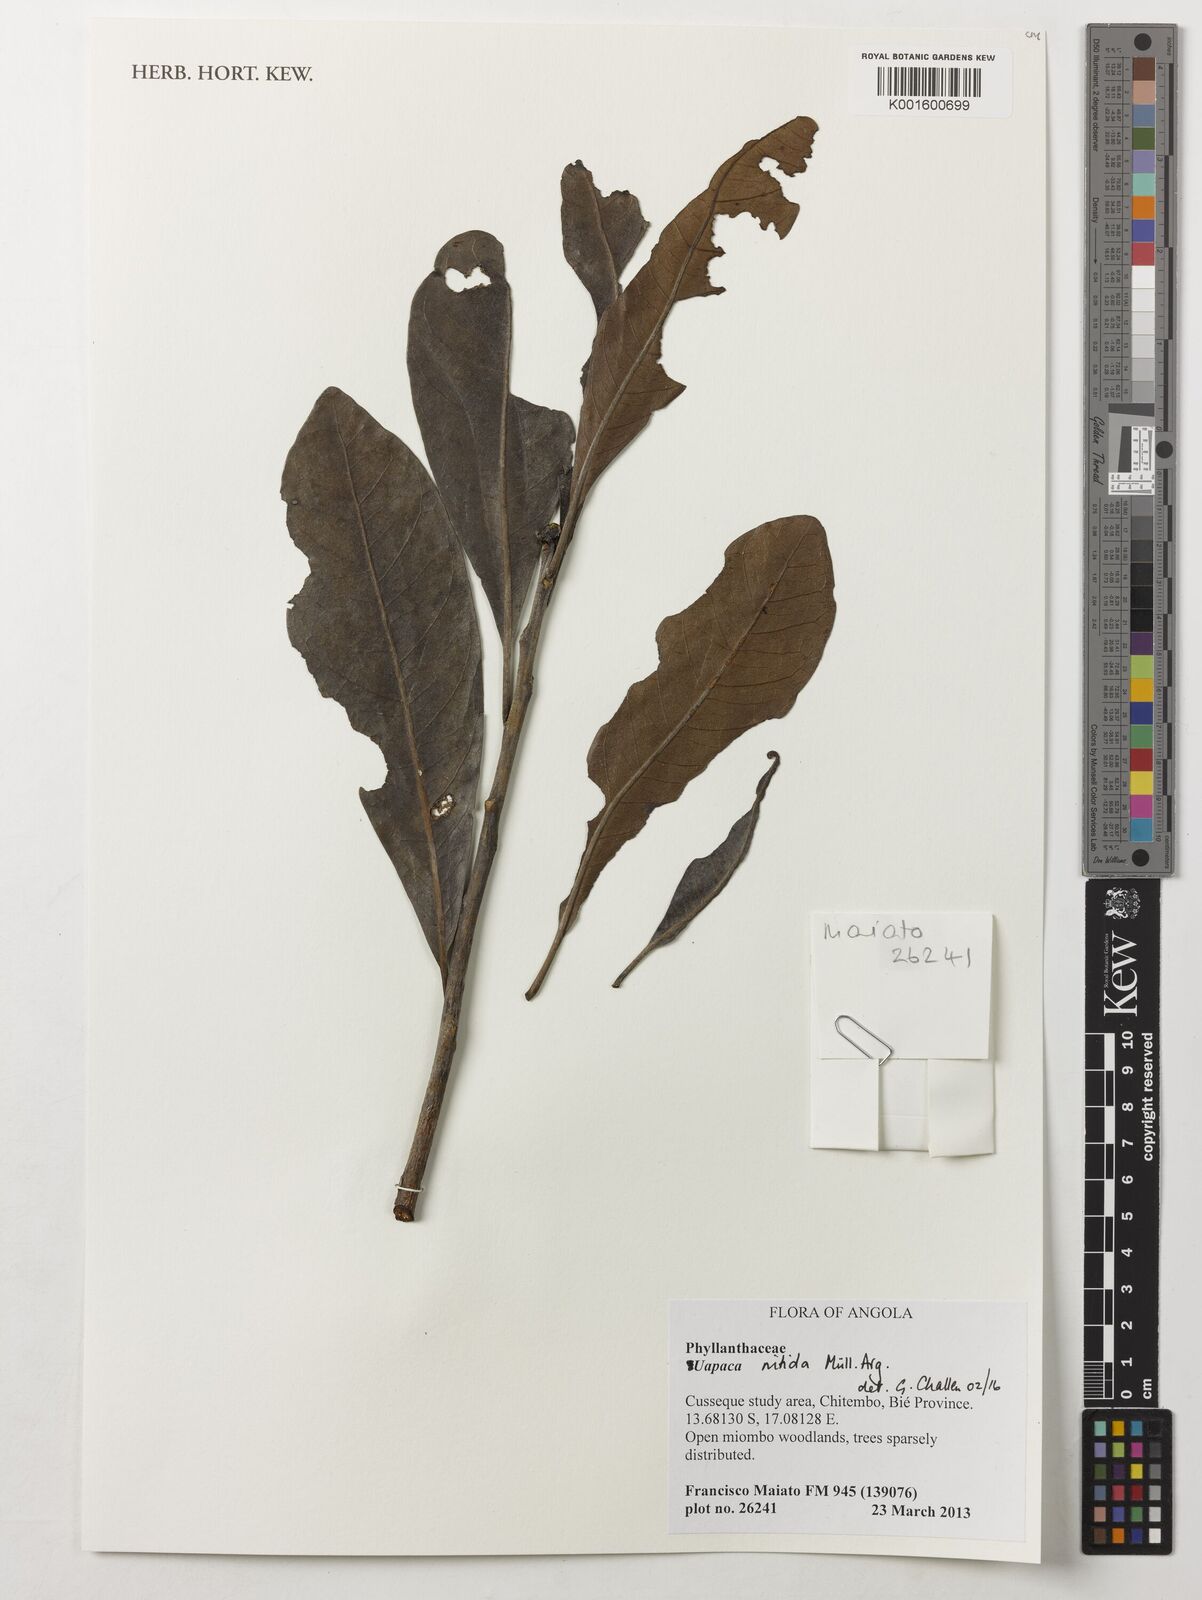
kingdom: Plantae
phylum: Tracheophyta
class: Magnoliopsida
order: Malpighiales
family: Phyllanthaceae
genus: Uapaca
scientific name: Uapaca nitida
